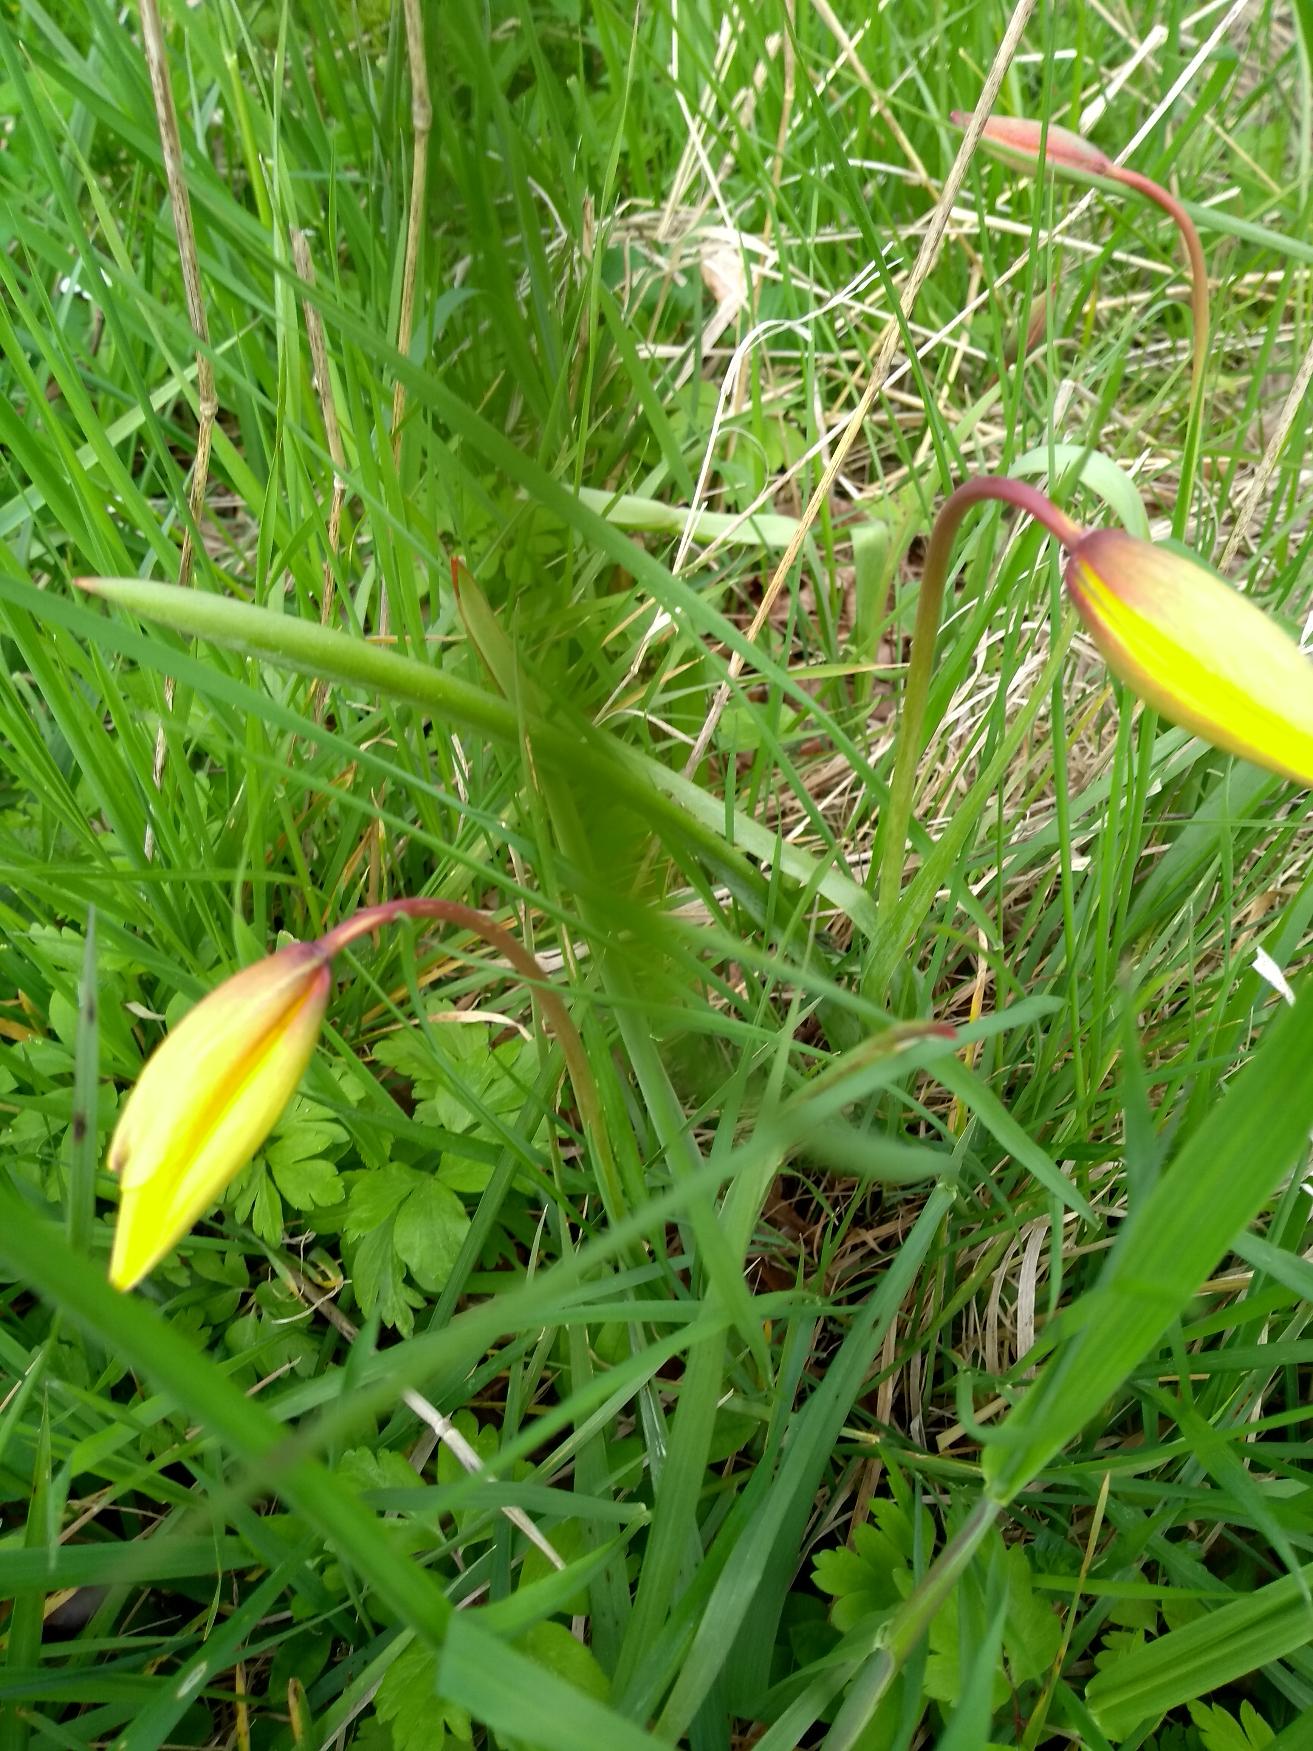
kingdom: Plantae
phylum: Tracheophyta
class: Liliopsida
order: Liliales
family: Liliaceae
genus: Tulipa
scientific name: Tulipa sylvestris
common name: Vild tulipan
